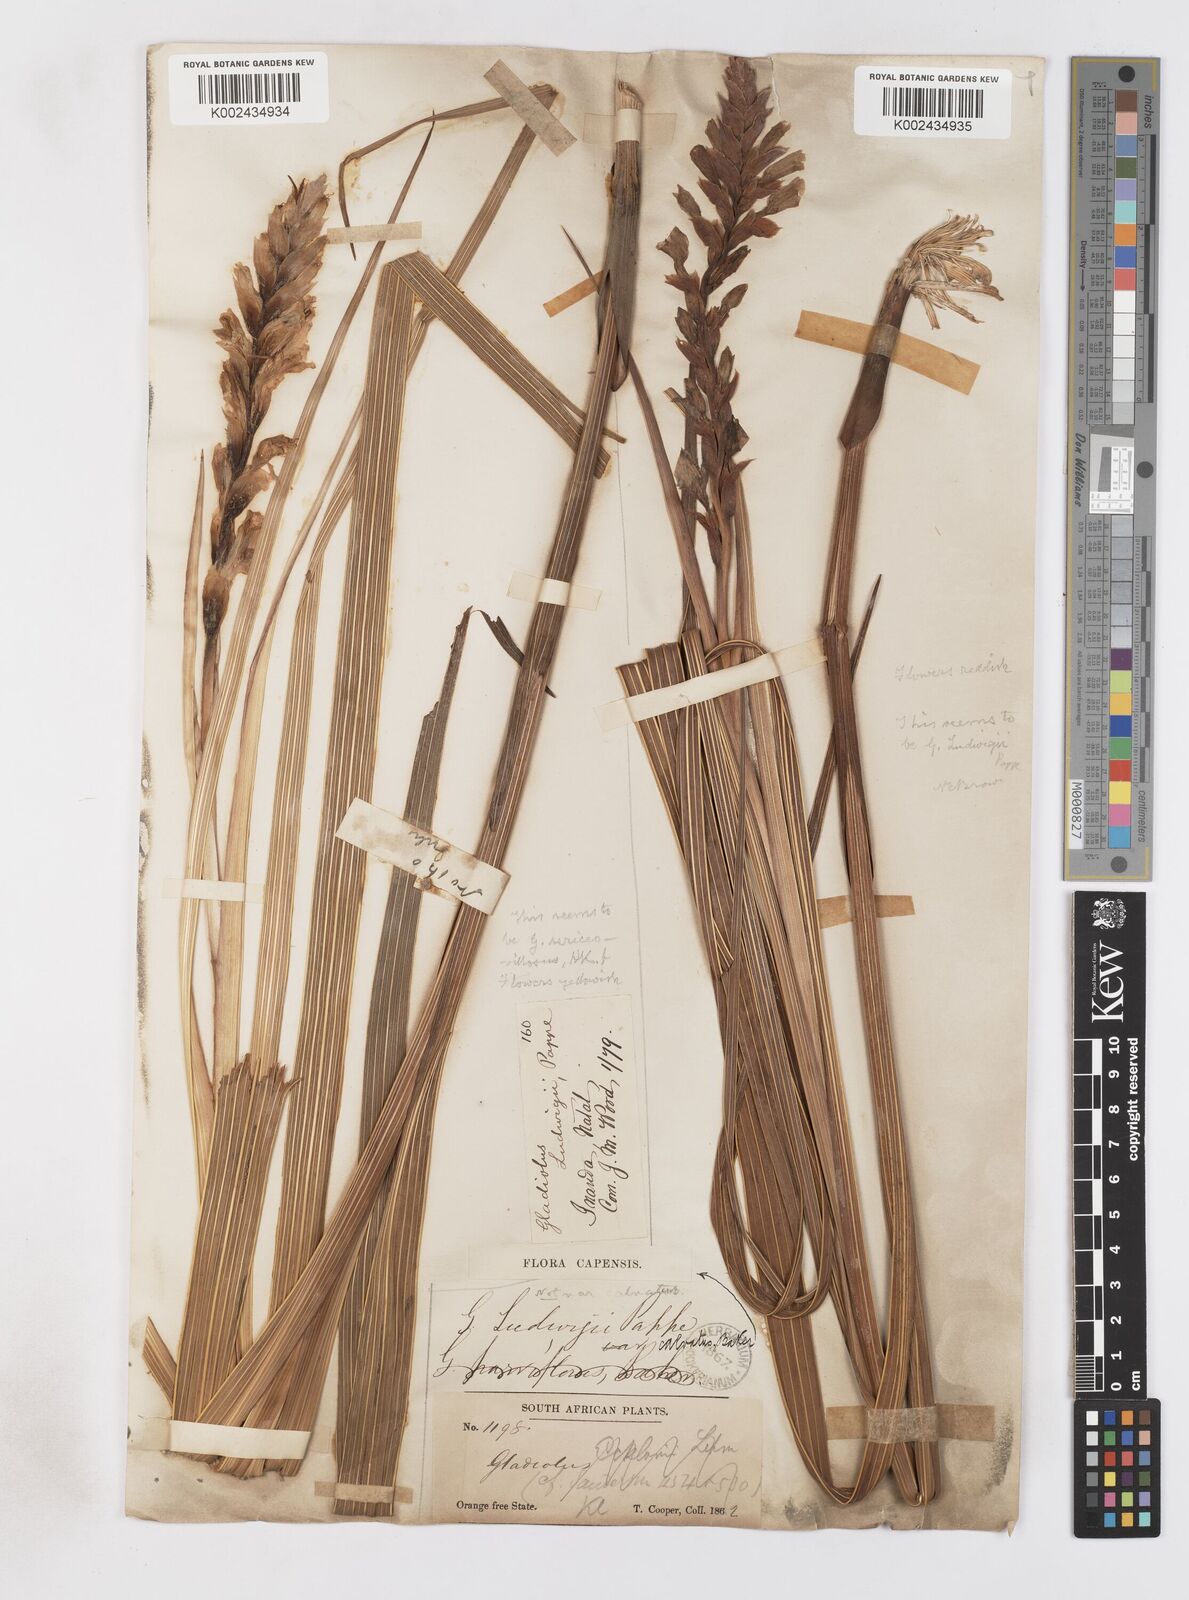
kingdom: Plantae
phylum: Tracheophyta
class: Liliopsida
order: Asparagales
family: Iridaceae
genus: Gladiolus
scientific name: Gladiolus sericeovillosus
